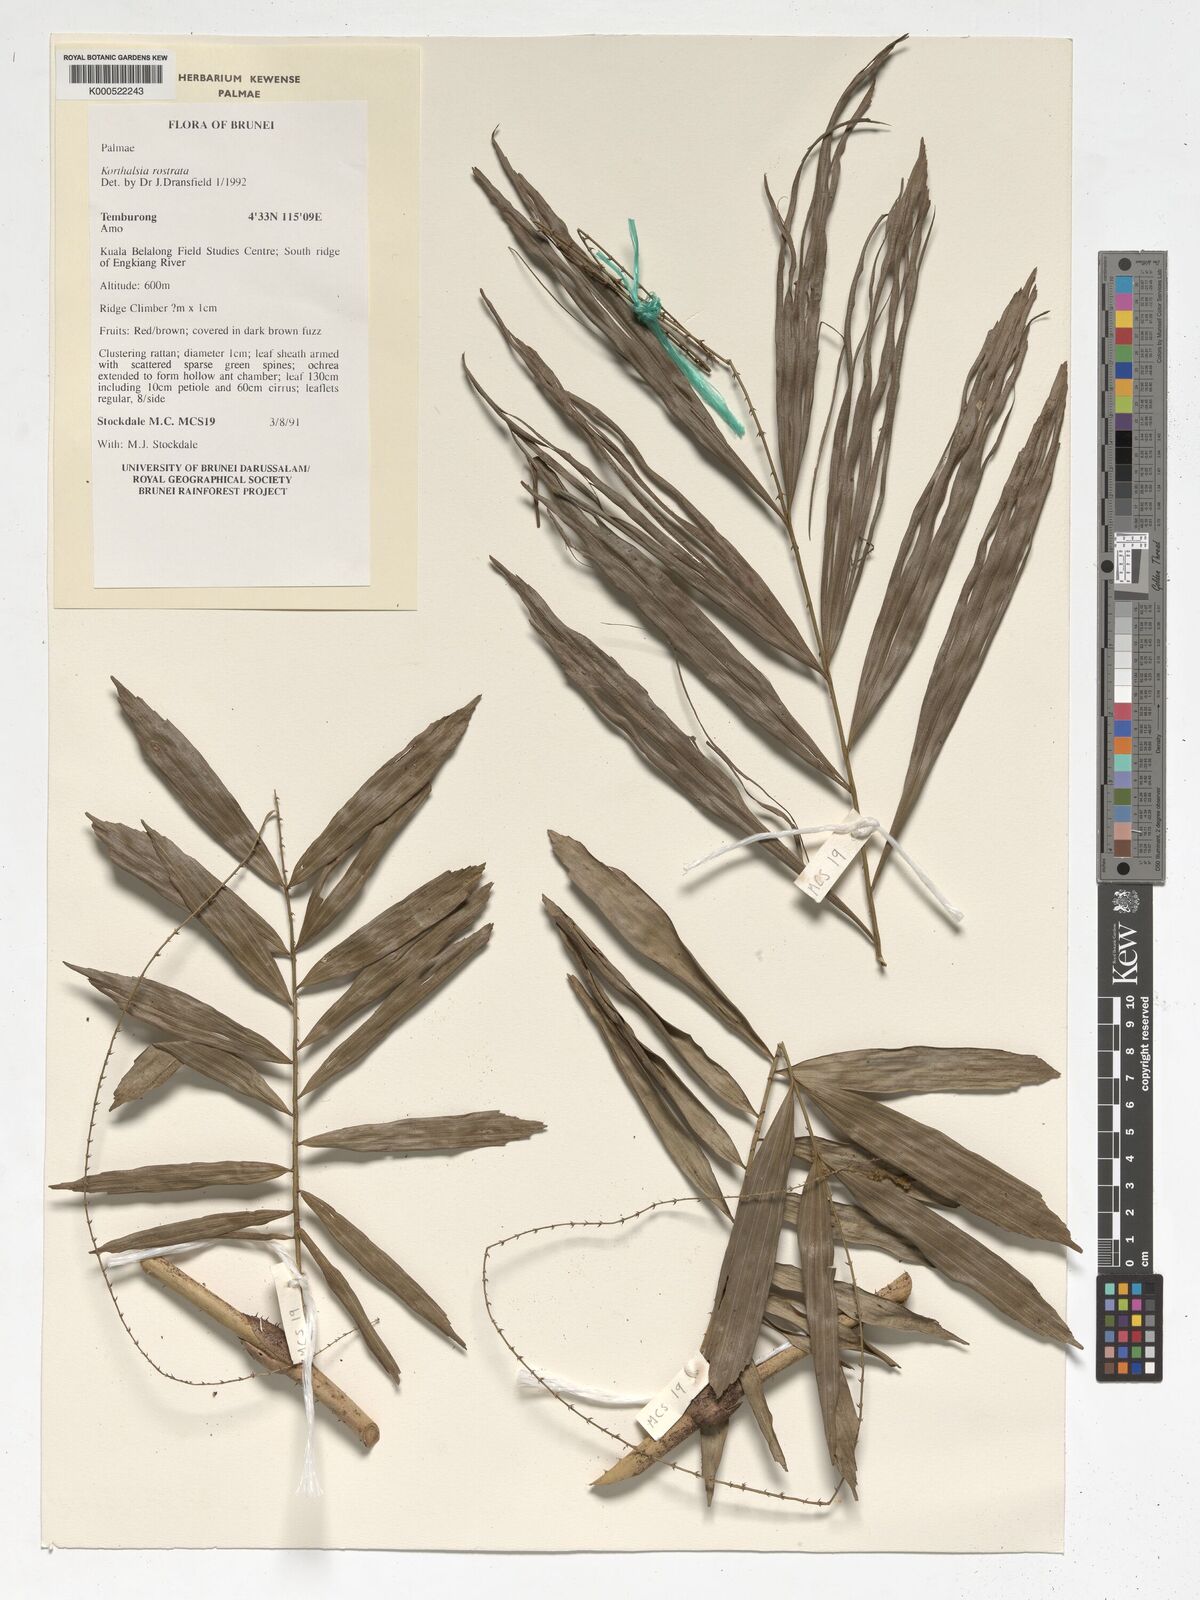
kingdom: Plantae
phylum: Tracheophyta
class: Liliopsida
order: Arecales
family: Arecaceae
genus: Korthalsia
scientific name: Korthalsia rostrata
